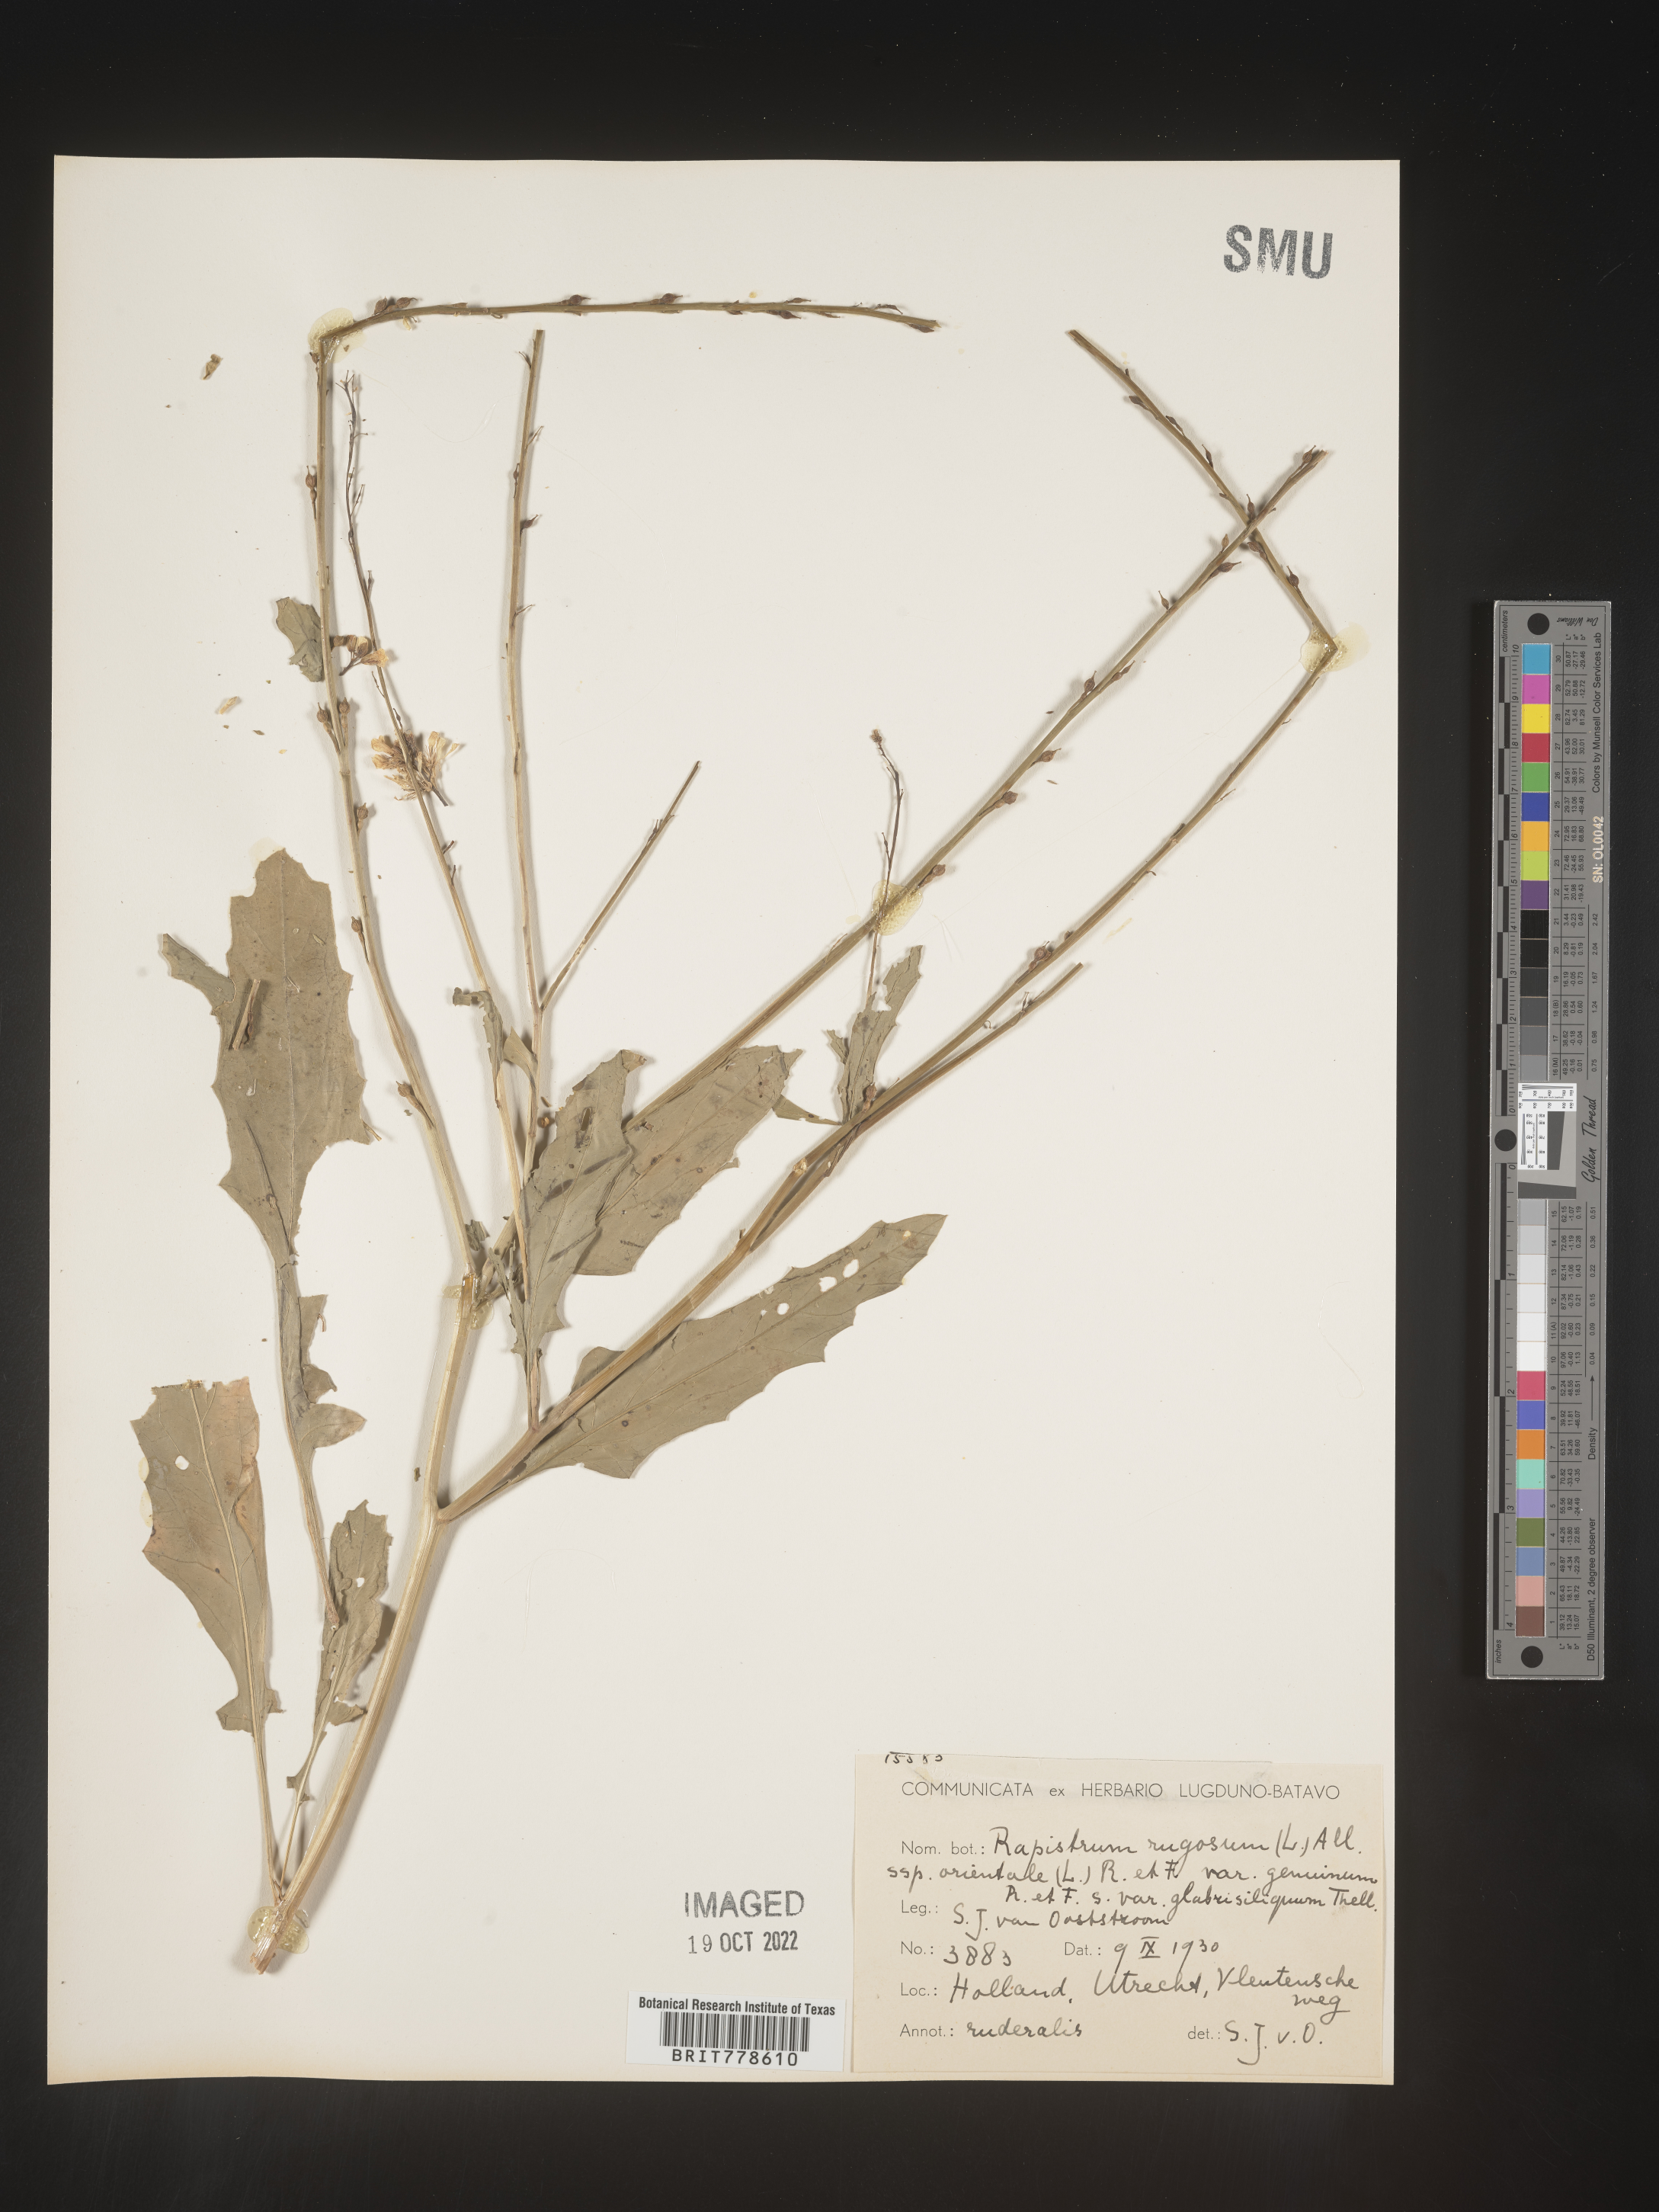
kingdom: Plantae
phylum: Tracheophyta
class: Magnoliopsida
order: Brassicales
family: Brassicaceae
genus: Rapistrum
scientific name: Rapistrum
